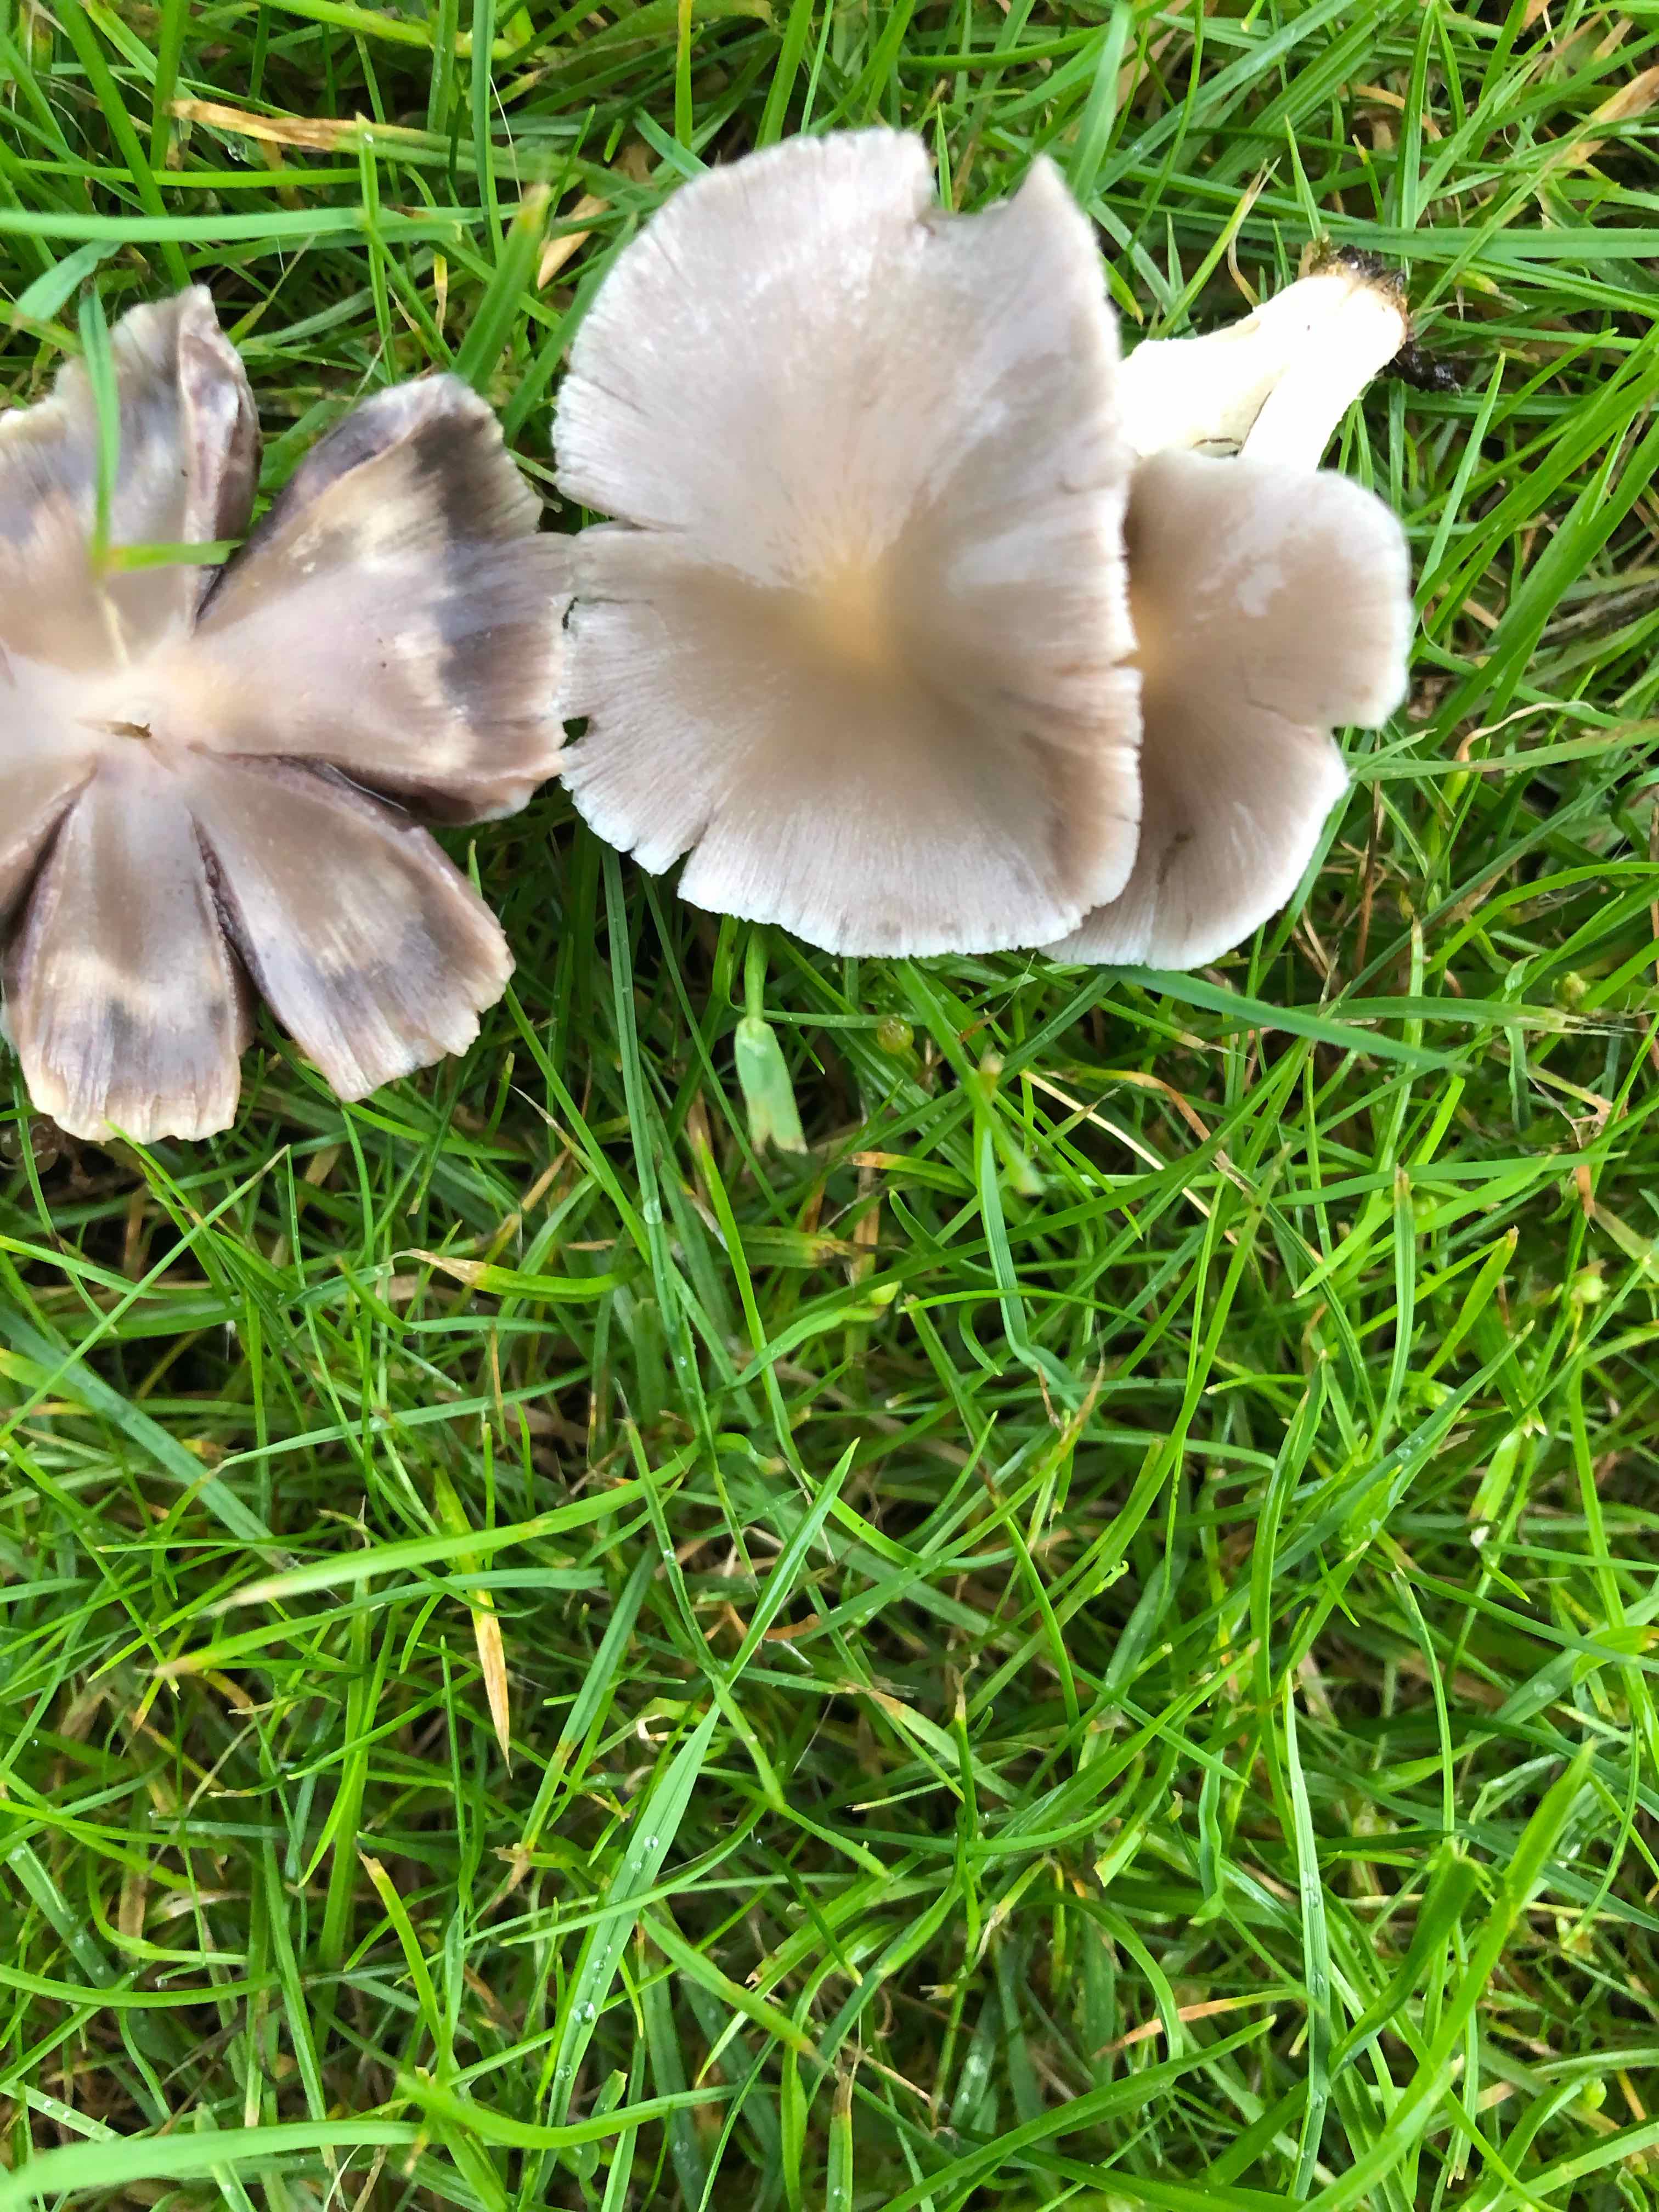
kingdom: Fungi
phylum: Basidiomycota
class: Agaricomycetes
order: Agaricales
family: Psathyrellaceae
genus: Candolleomyces
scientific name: Candolleomyces candolleanus
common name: Candolles mørkhat
